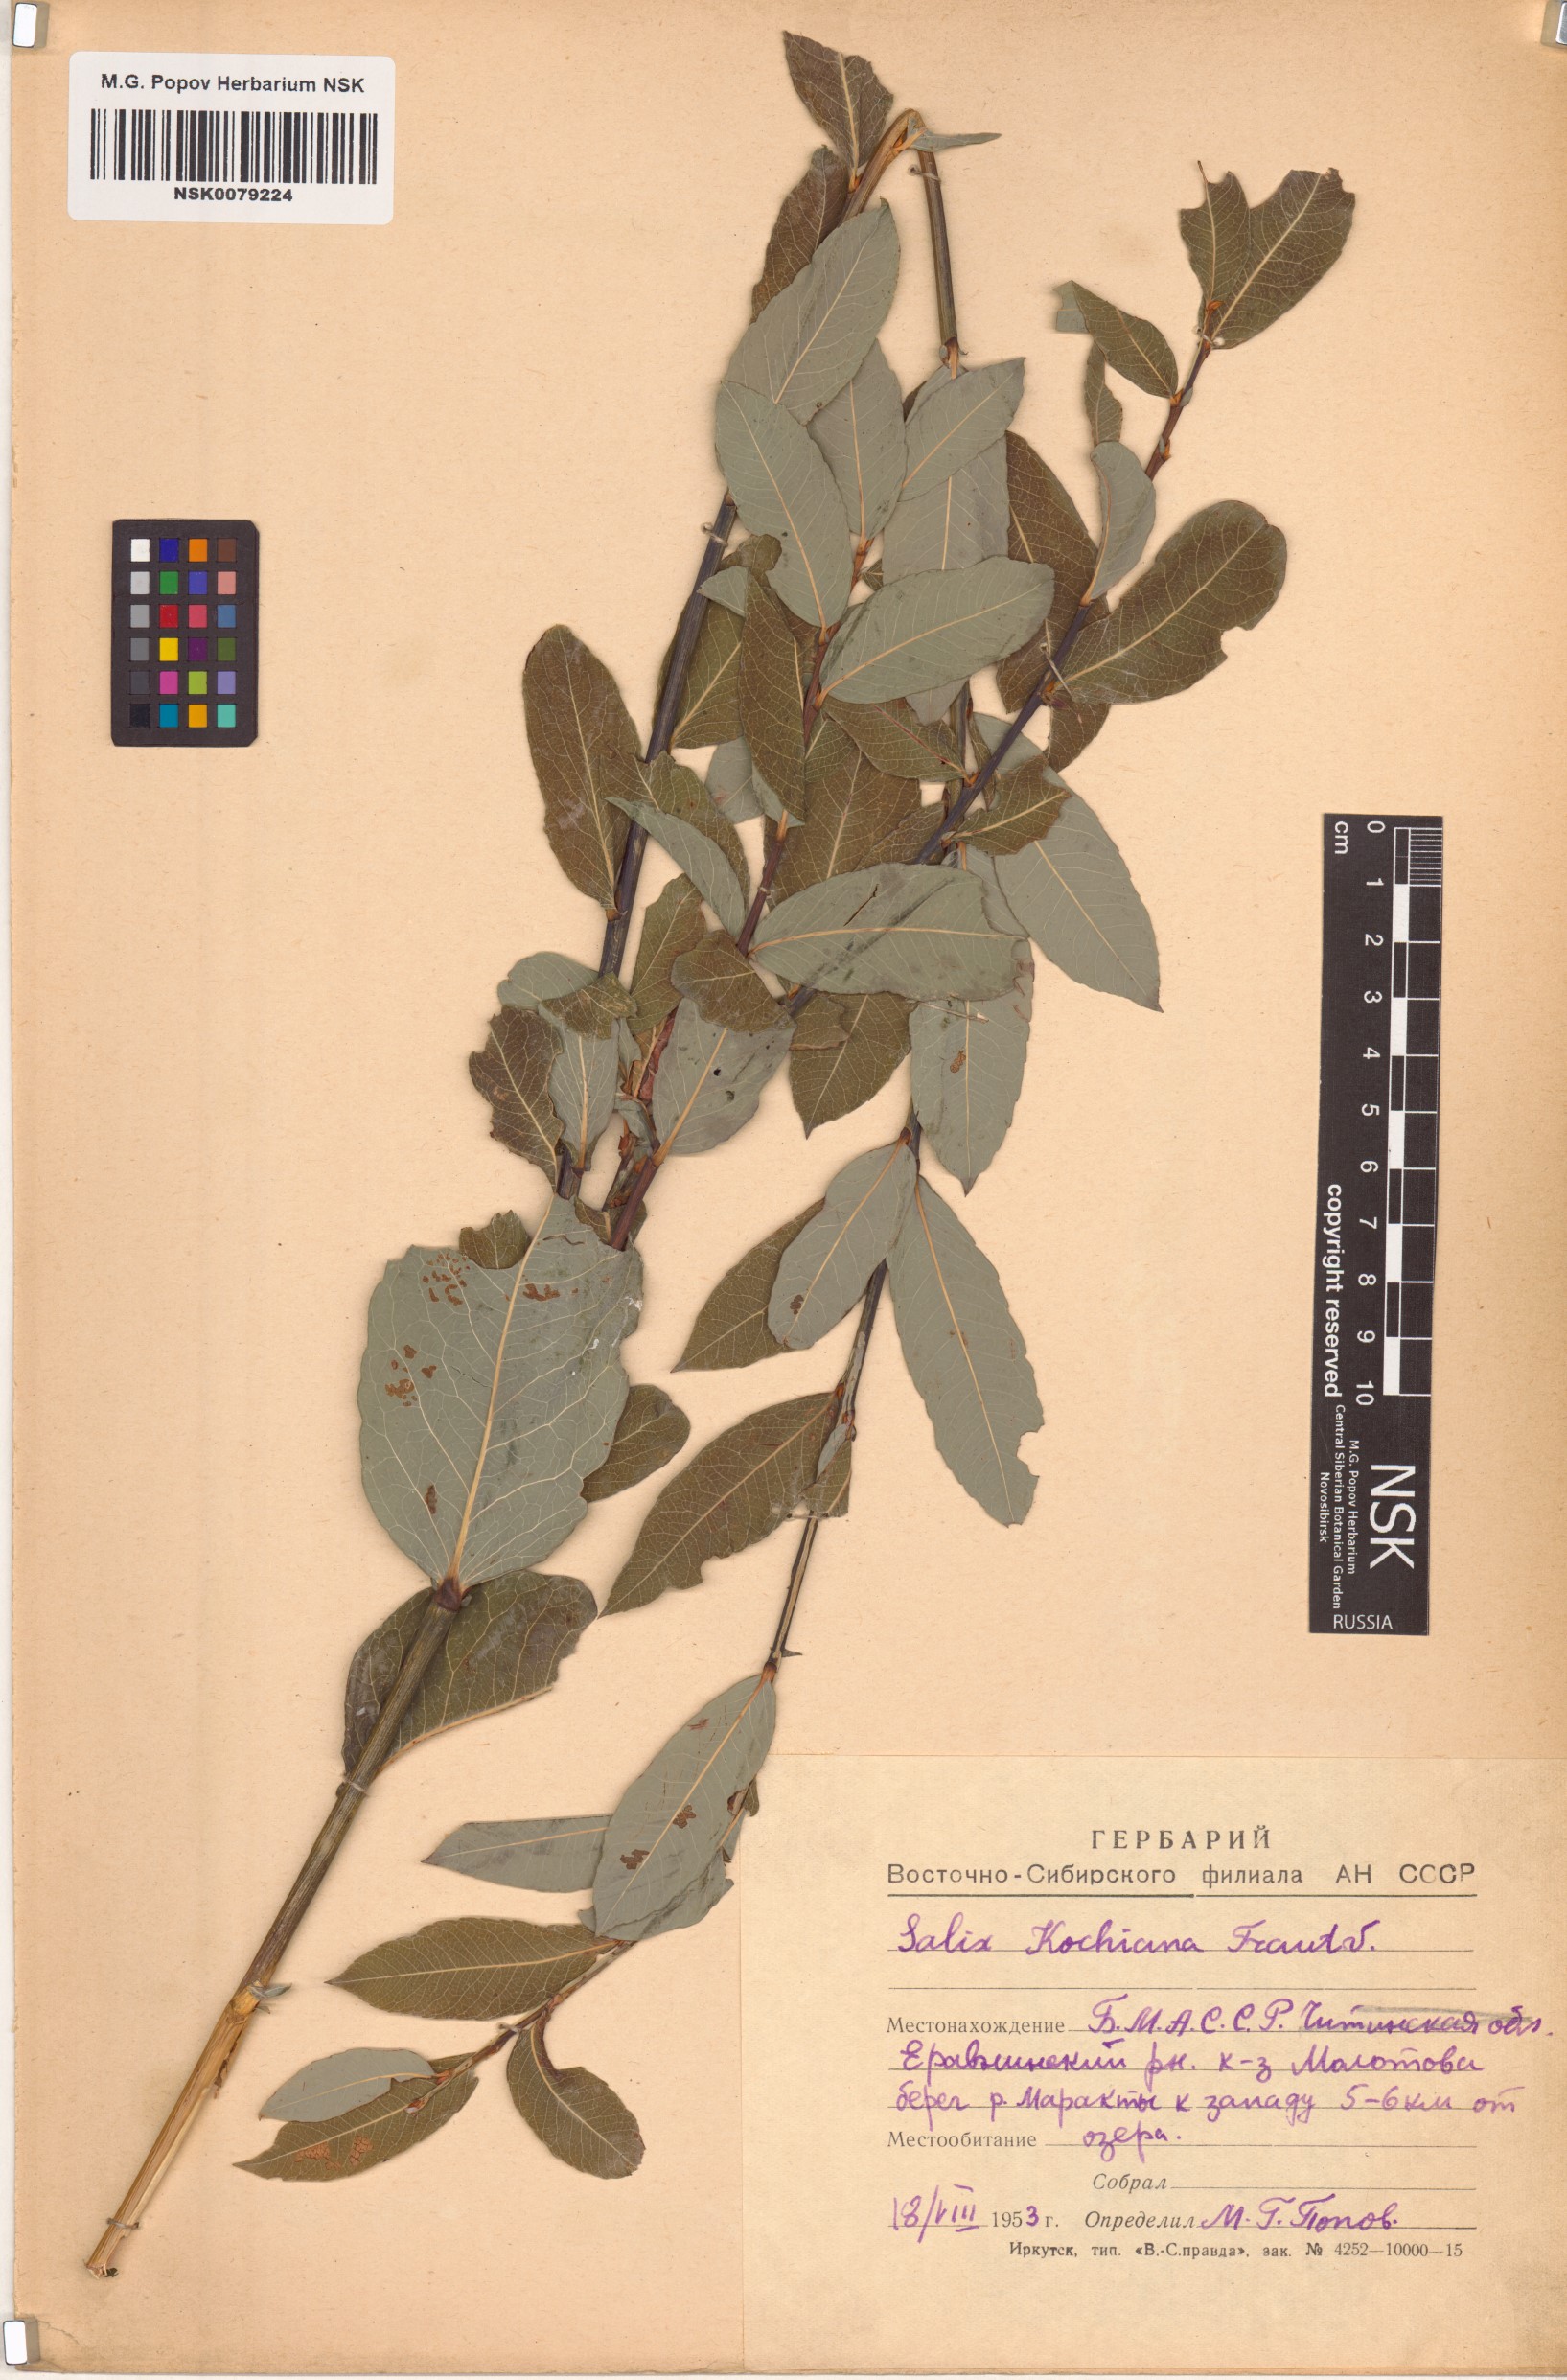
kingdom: Plantae
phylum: Tracheophyta
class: Magnoliopsida
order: Malpighiales
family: Salicaceae
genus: Salix
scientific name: Salix kochiana
